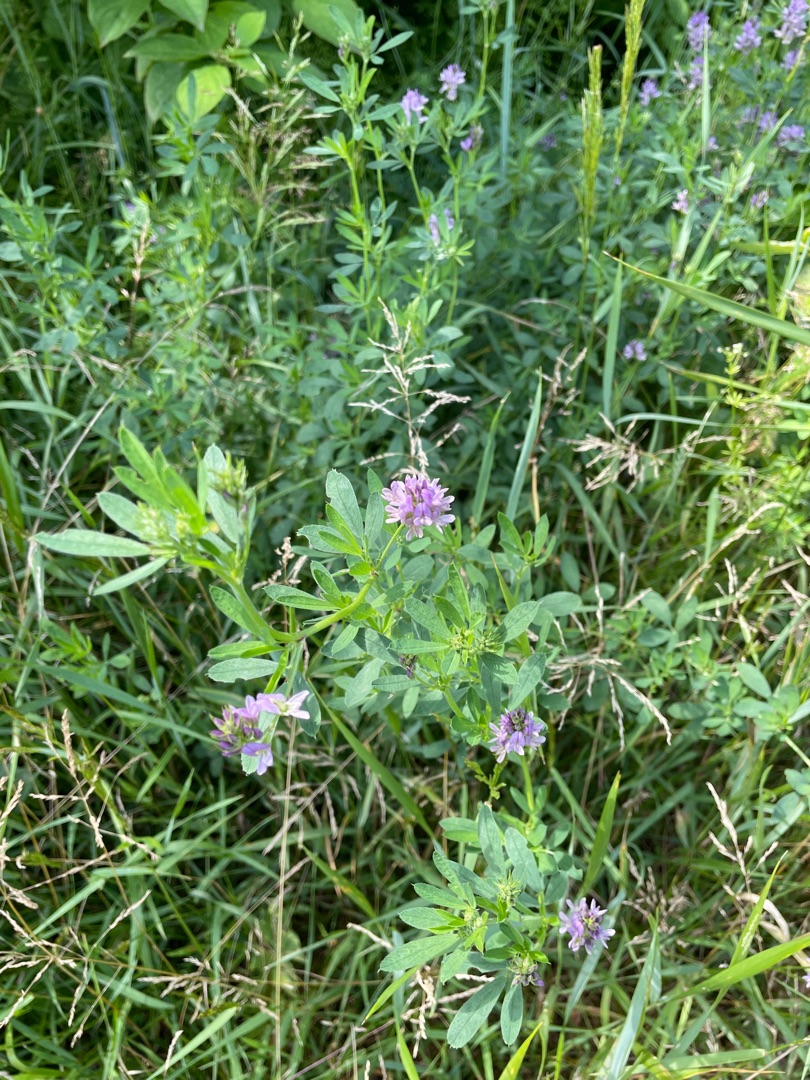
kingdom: Plantae
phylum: Tracheophyta
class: Magnoliopsida
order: Fabales
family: Fabaceae
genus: Medicago
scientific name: Medicago sativa
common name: Lucerne
